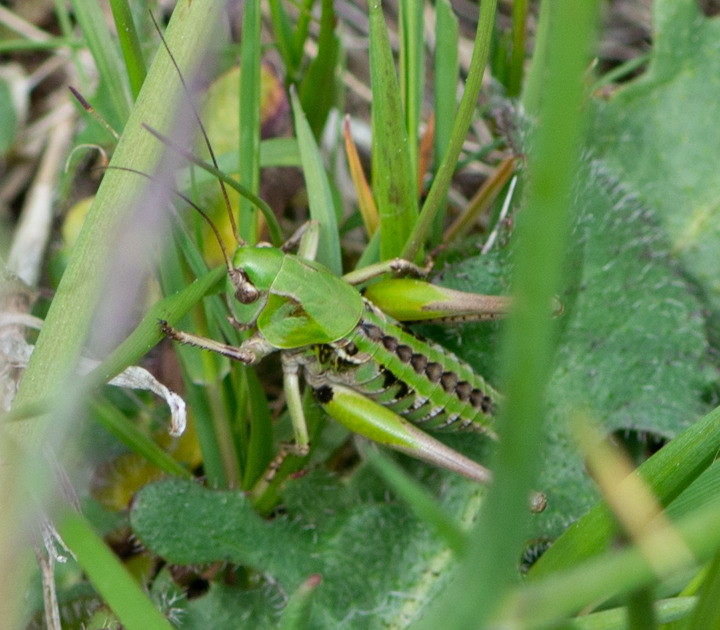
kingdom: Animalia
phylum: Arthropoda
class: Insecta
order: Orthoptera
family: Tettigoniidae
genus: Decticus
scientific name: Decticus verrucivorus
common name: Vortebider
